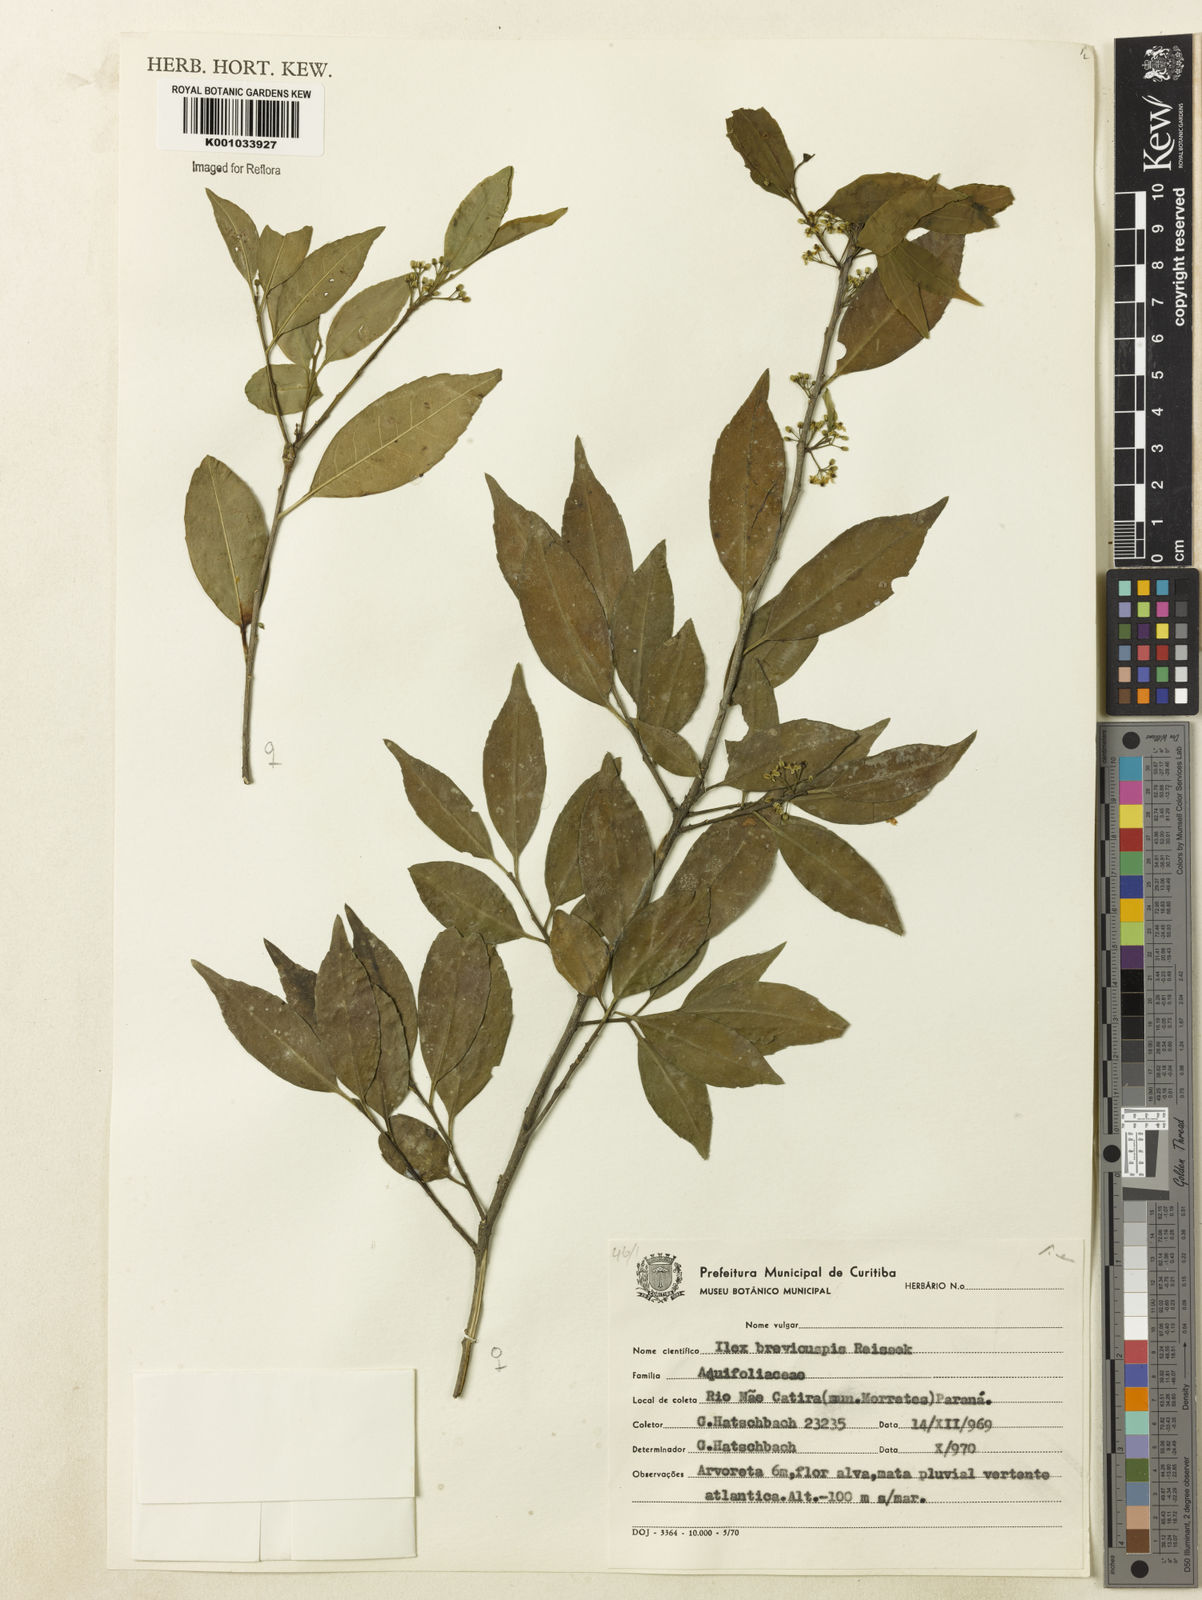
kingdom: Plantae
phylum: Tracheophyta
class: Magnoliopsida
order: Aquifoliales
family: Aquifoliaceae
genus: Ilex
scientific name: Ilex brevicuspis
